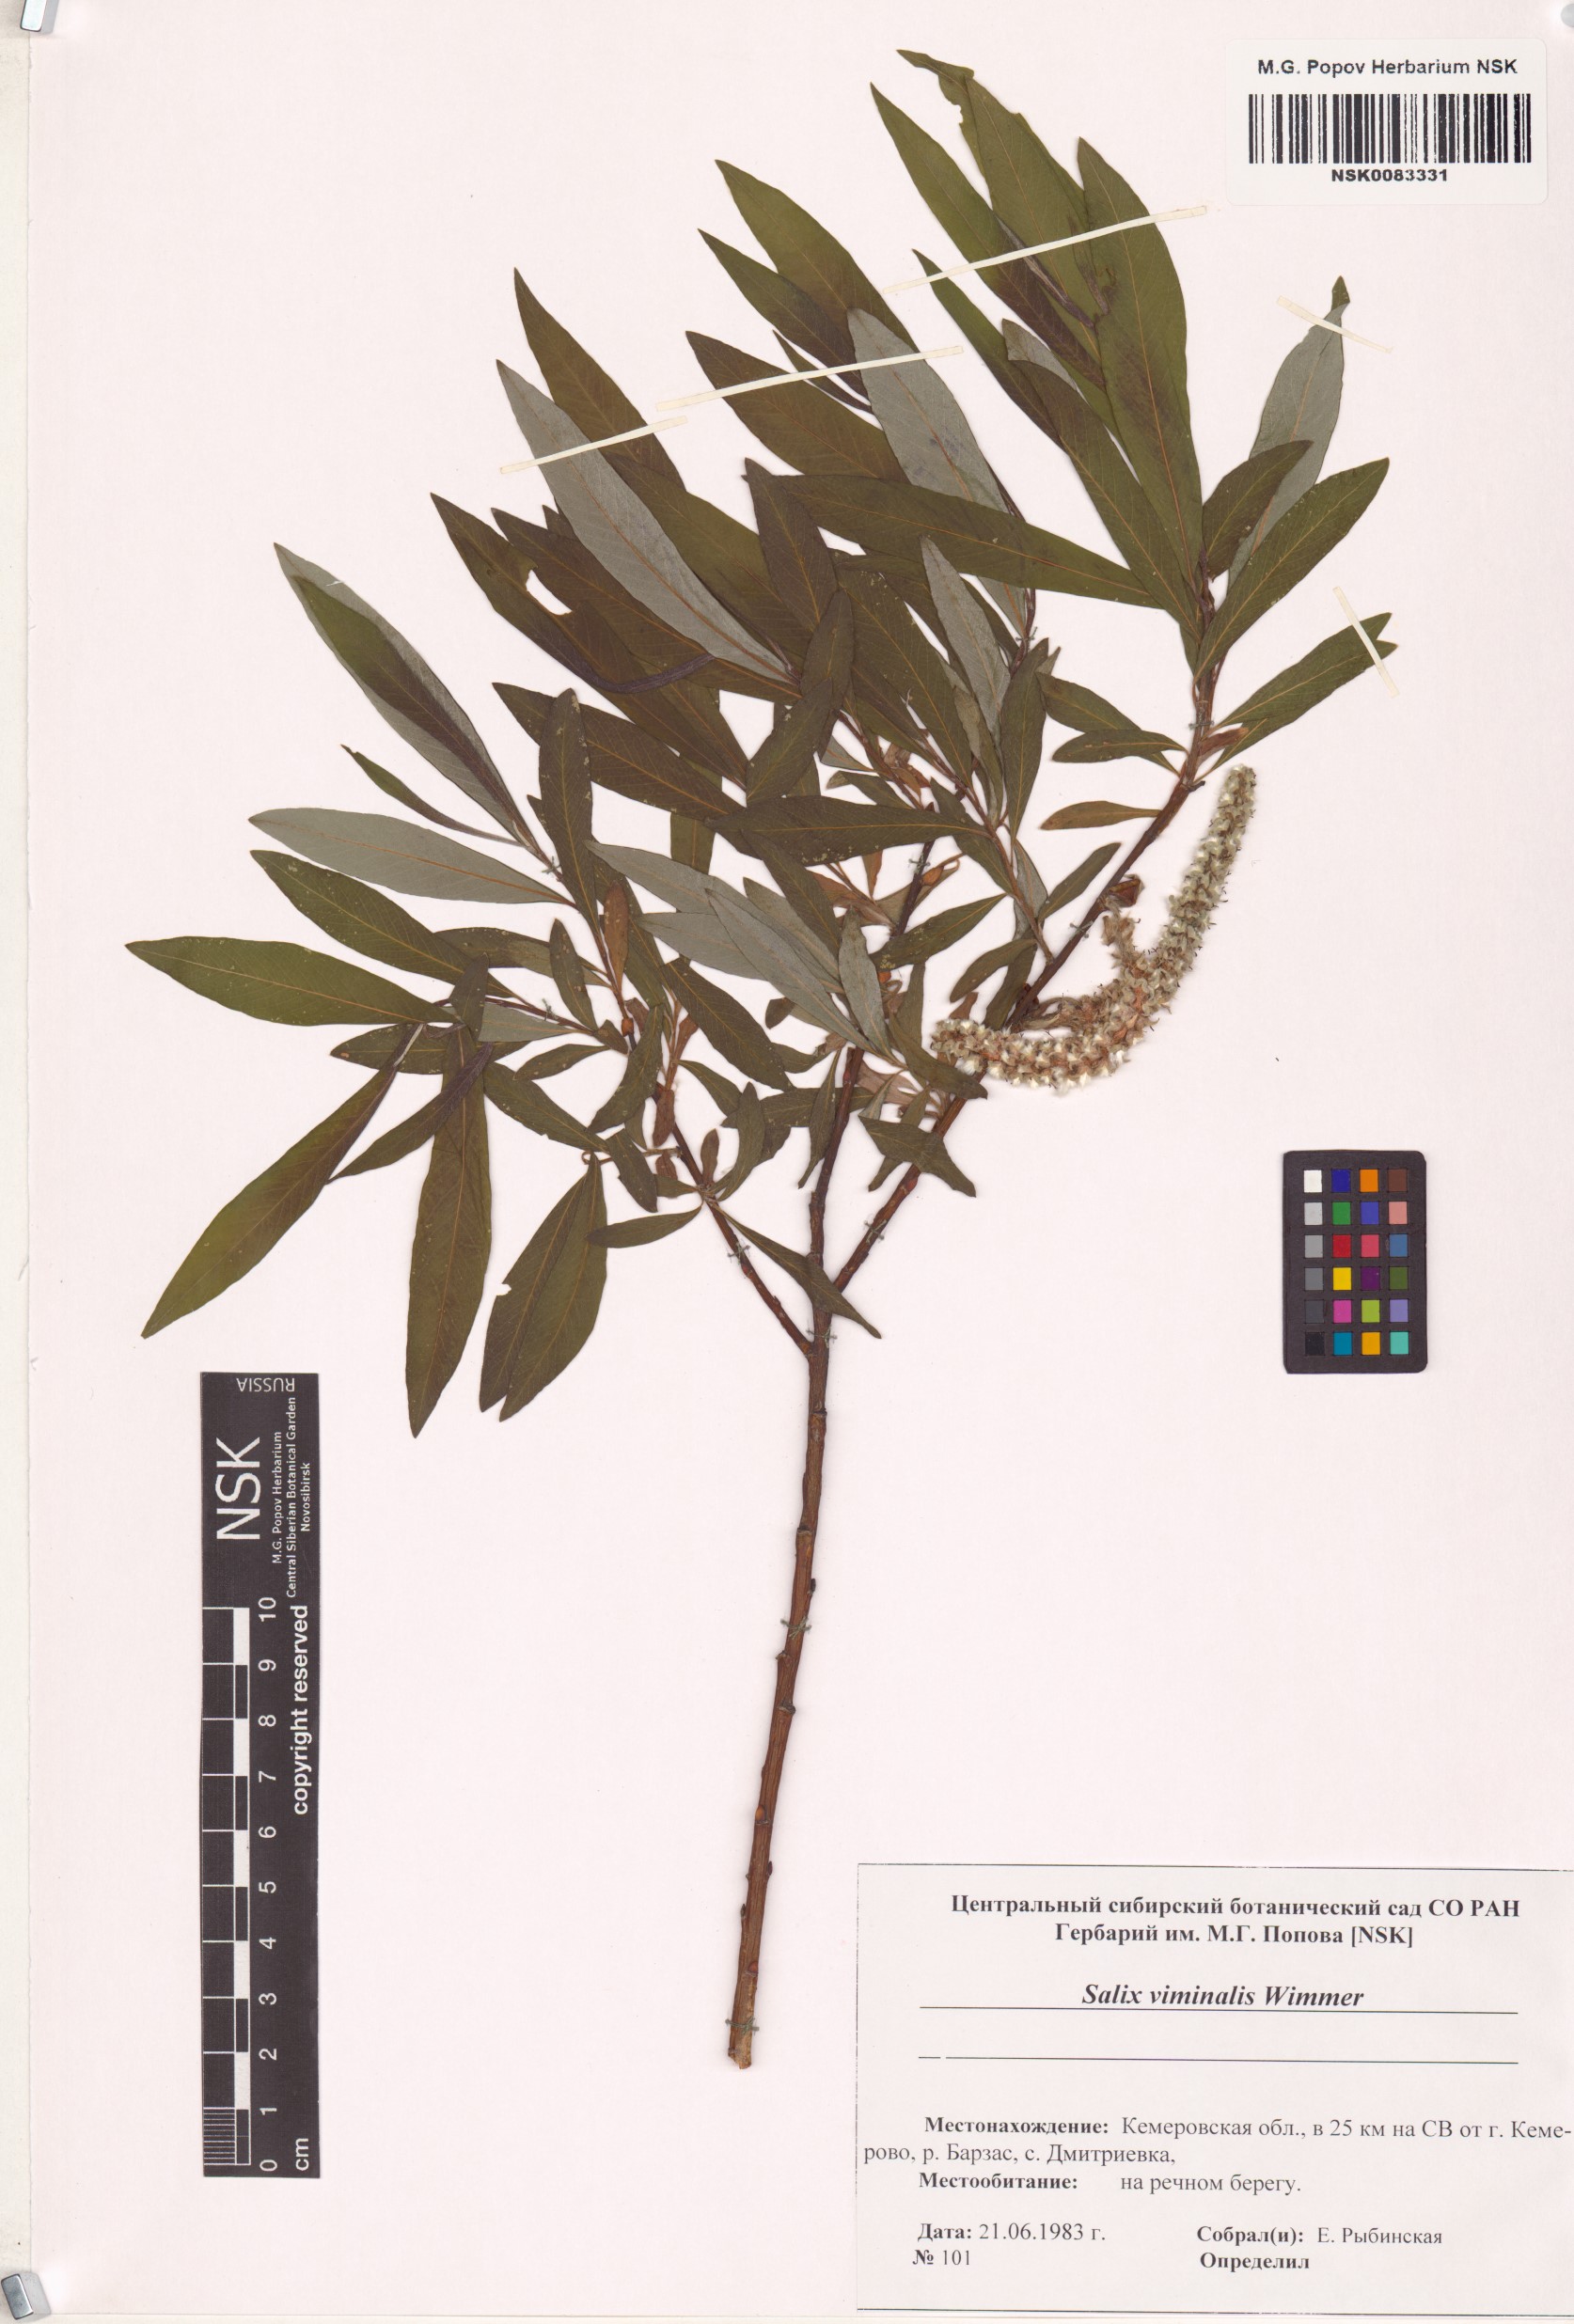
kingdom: Plantae
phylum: Tracheophyta
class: Magnoliopsida
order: Malpighiales
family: Salicaceae
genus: Salix
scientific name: Salix viminalis
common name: Osier
